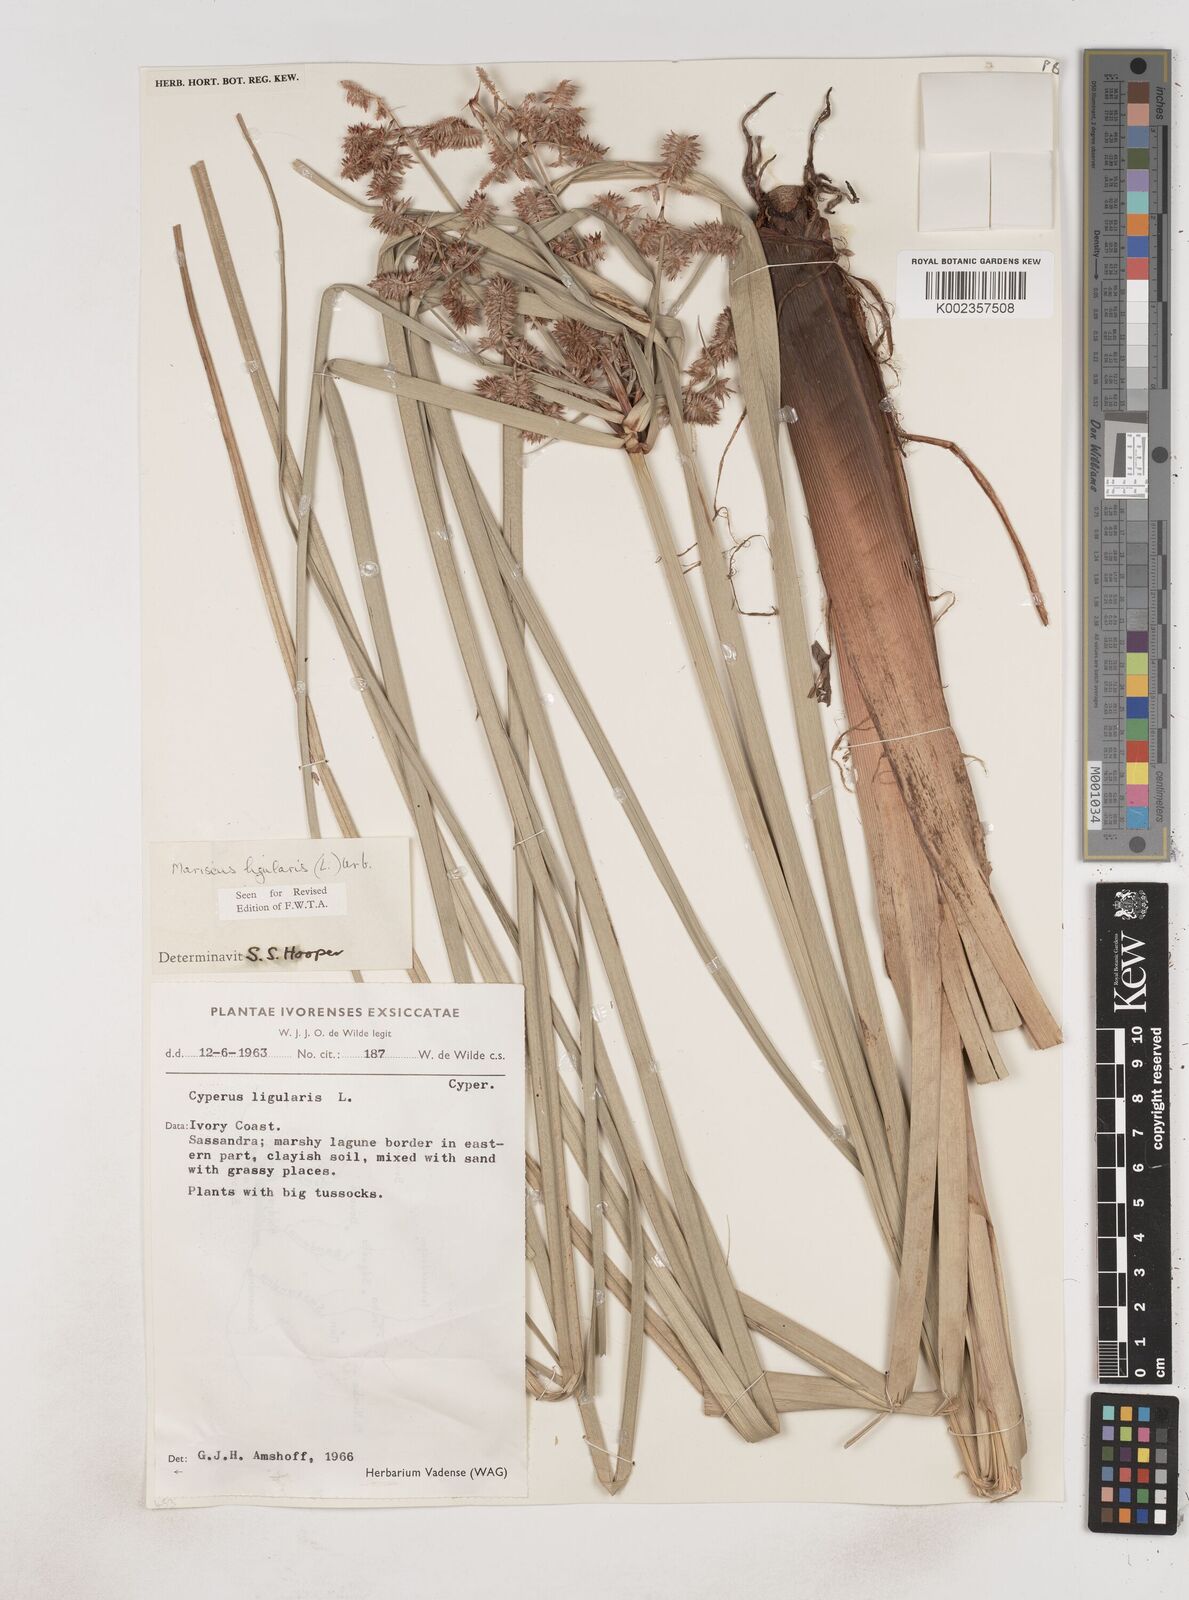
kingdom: Plantae
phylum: Tracheophyta
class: Liliopsida
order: Poales
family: Cyperaceae
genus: Cyperus
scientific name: Cyperus ligularis
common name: Swamp flat sedge
